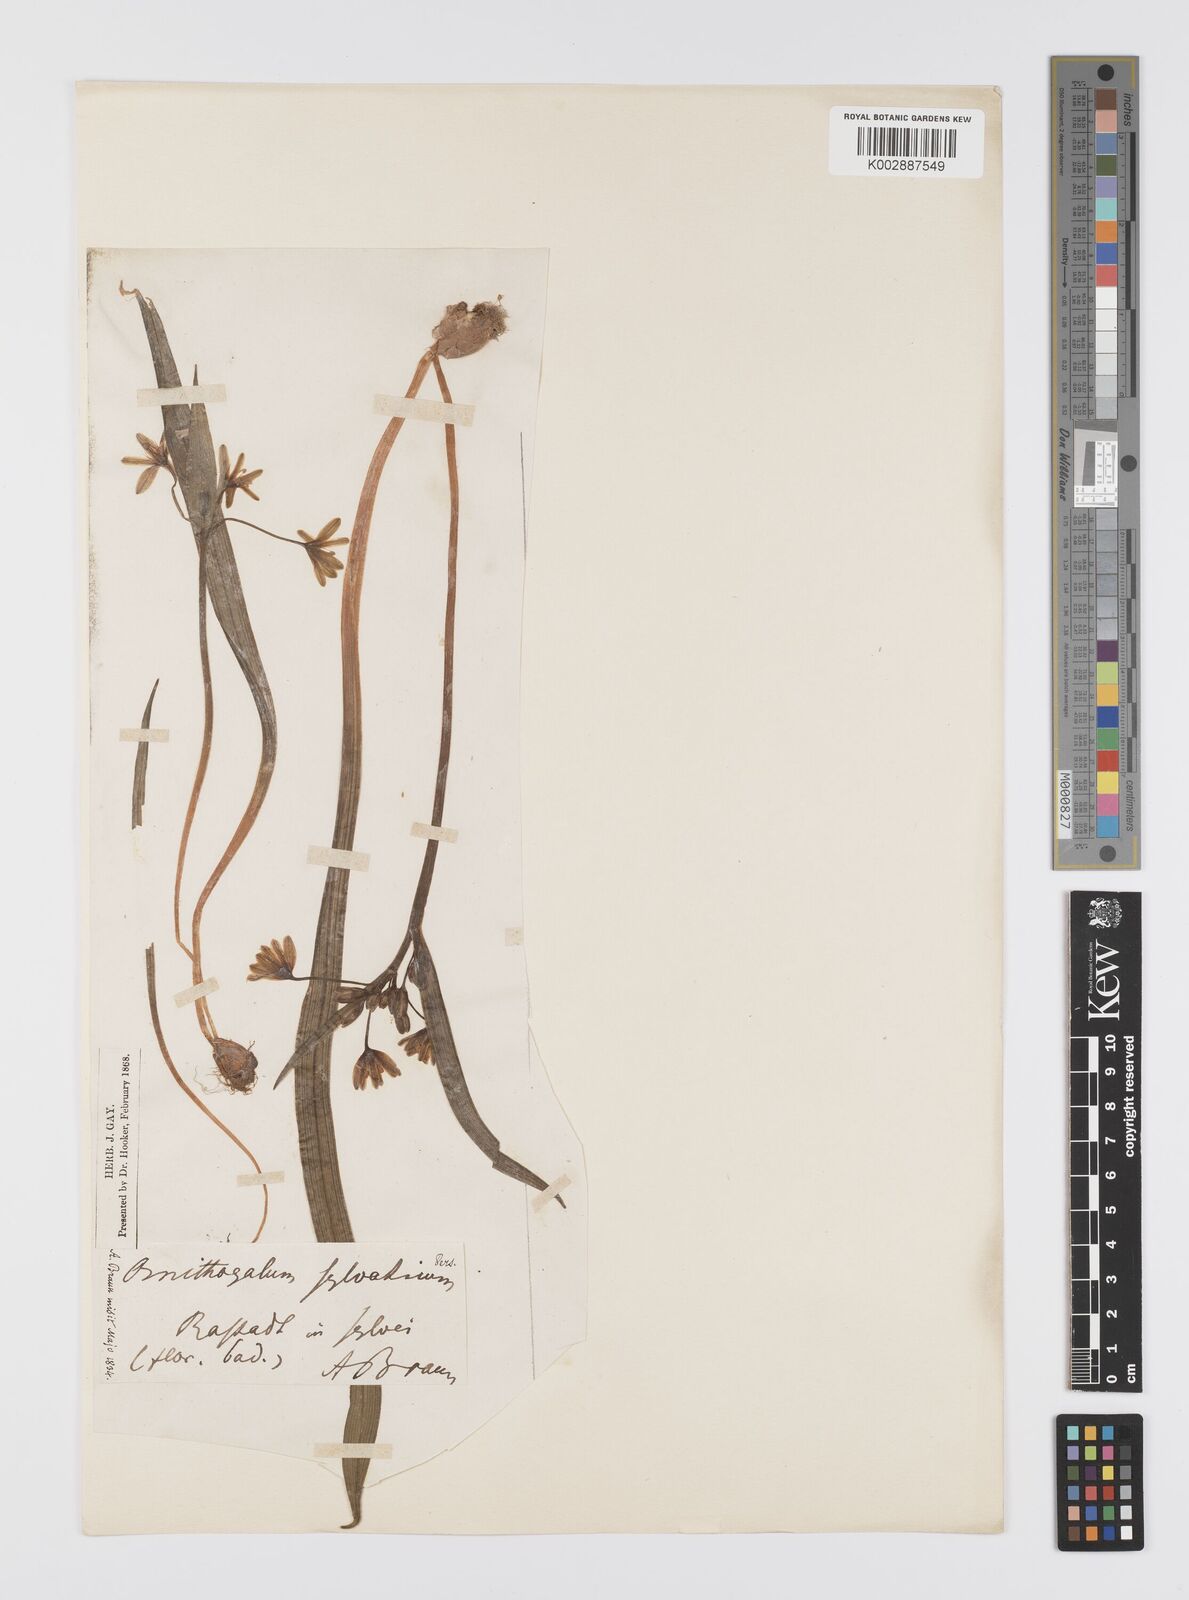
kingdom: Plantae
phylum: Tracheophyta
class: Liliopsida
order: Liliales
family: Liliaceae
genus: Gagea
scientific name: Gagea lutea
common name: Yellow star-of-bethlehem
